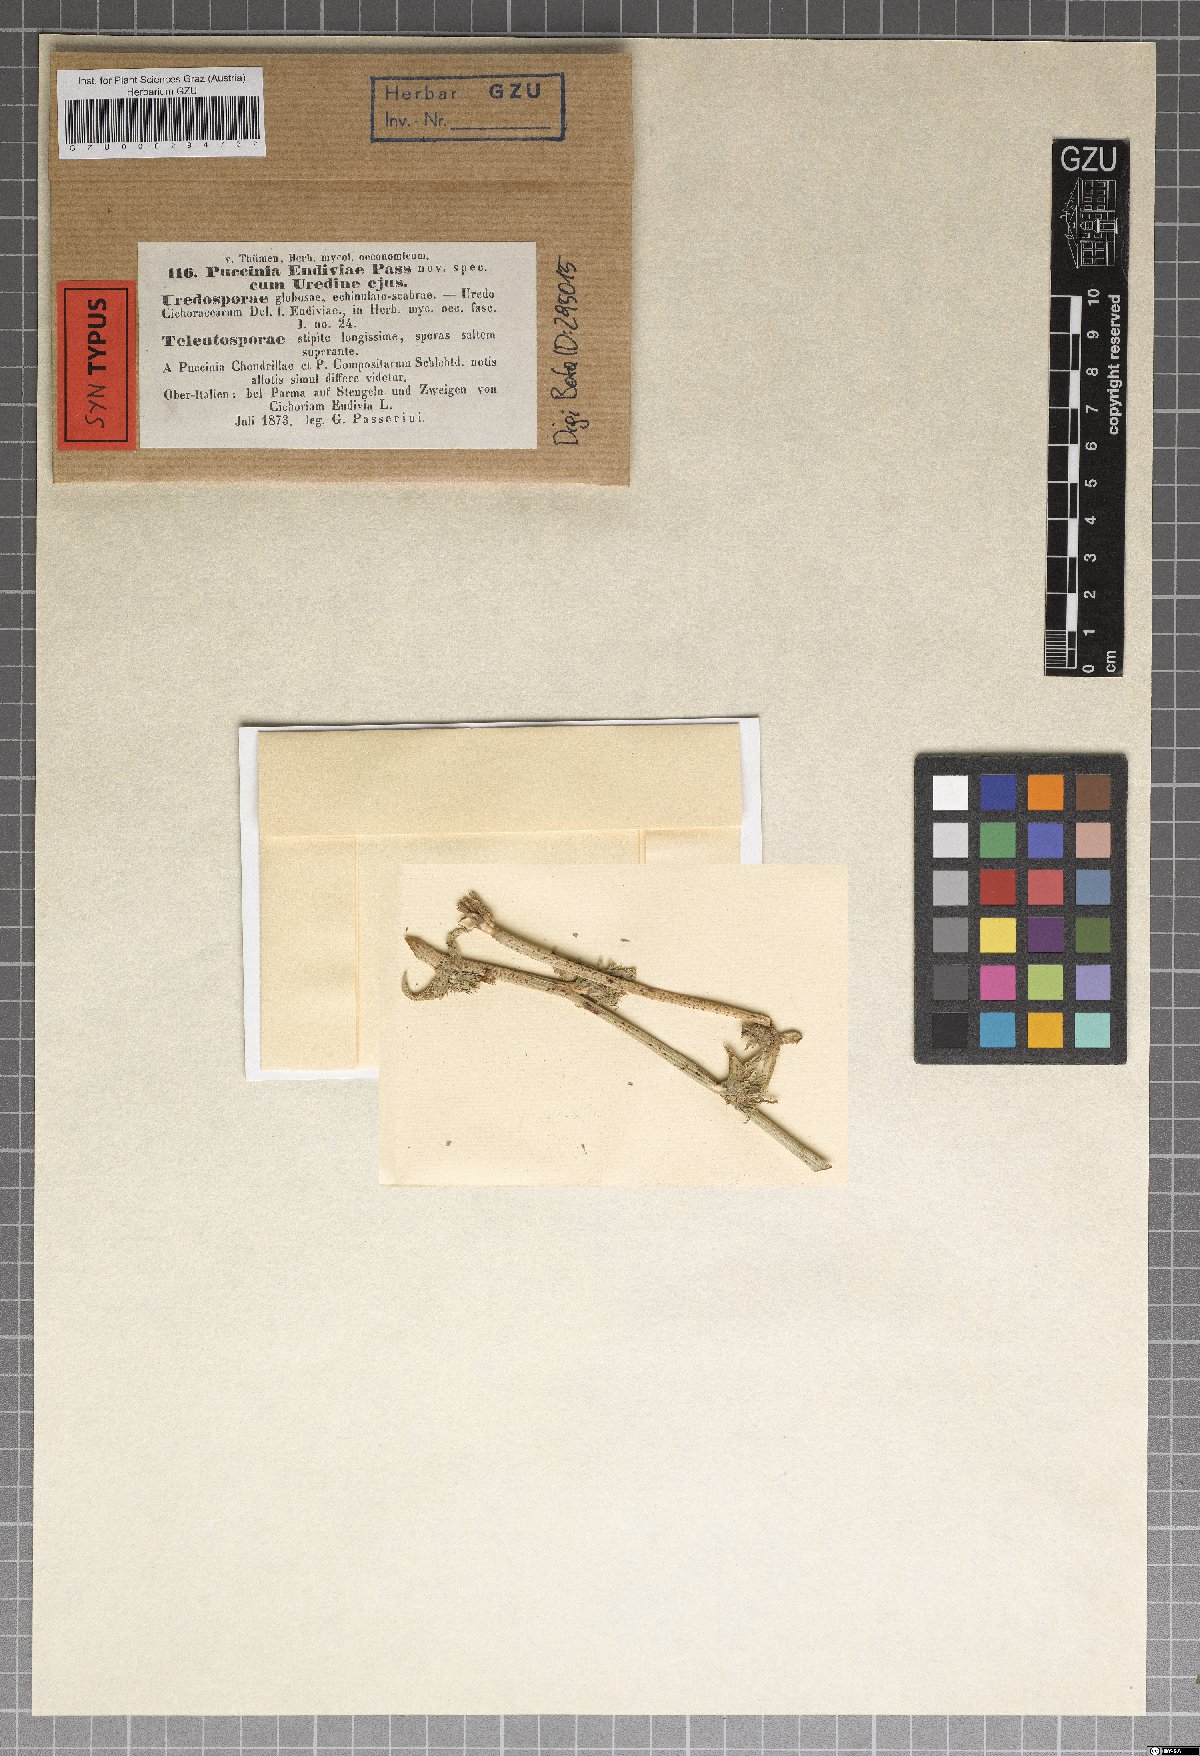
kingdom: Fungi
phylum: Basidiomycota
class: Pucciniomycetes
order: Pucciniales
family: Pucciniaceae
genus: Puccinia
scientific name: Puccinia hieracii
